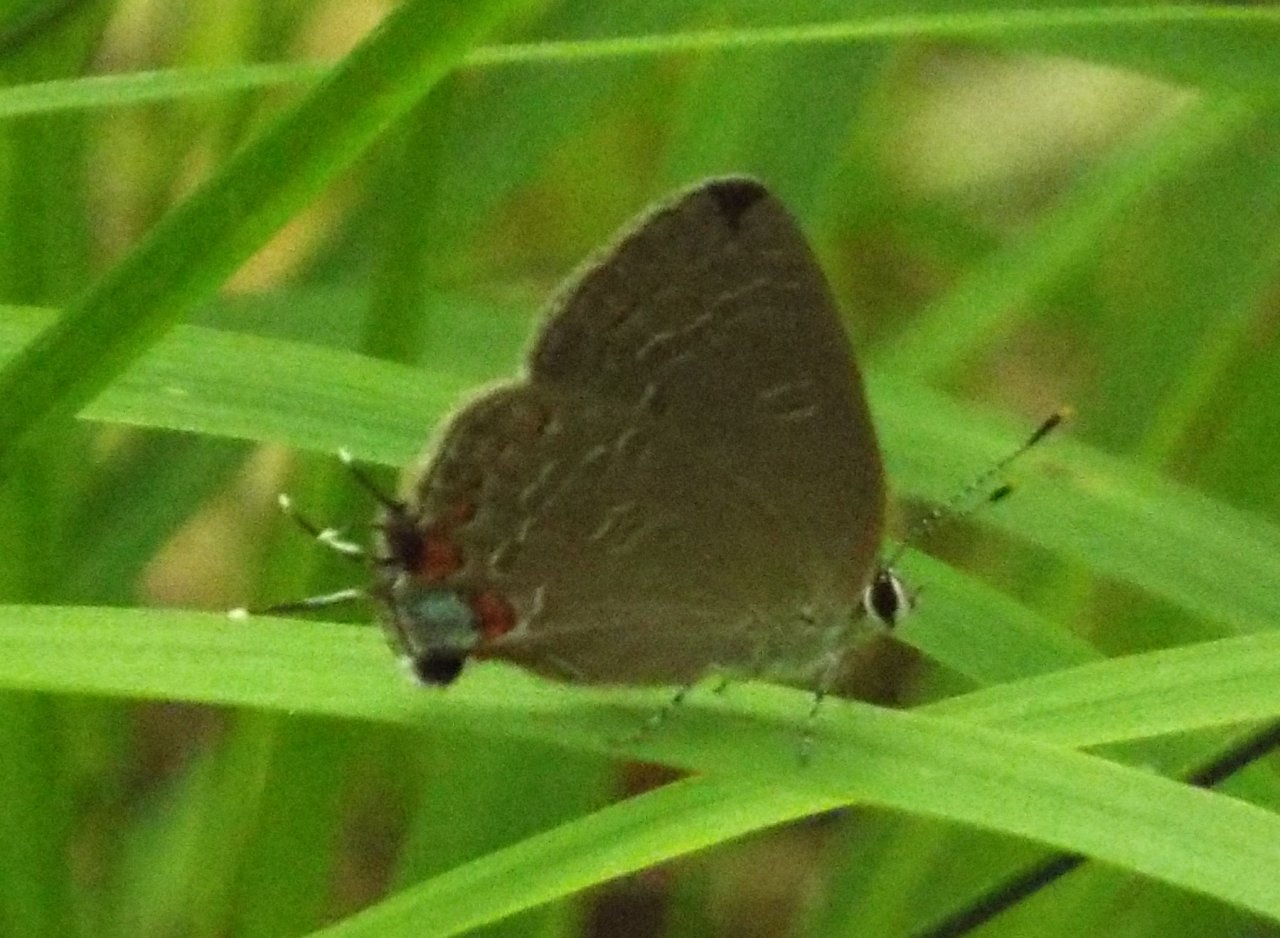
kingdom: Animalia
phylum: Arthropoda
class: Insecta
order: Lepidoptera
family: Lycaenidae
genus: Strymon
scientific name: Strymon kingi
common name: King's Hairstreak
